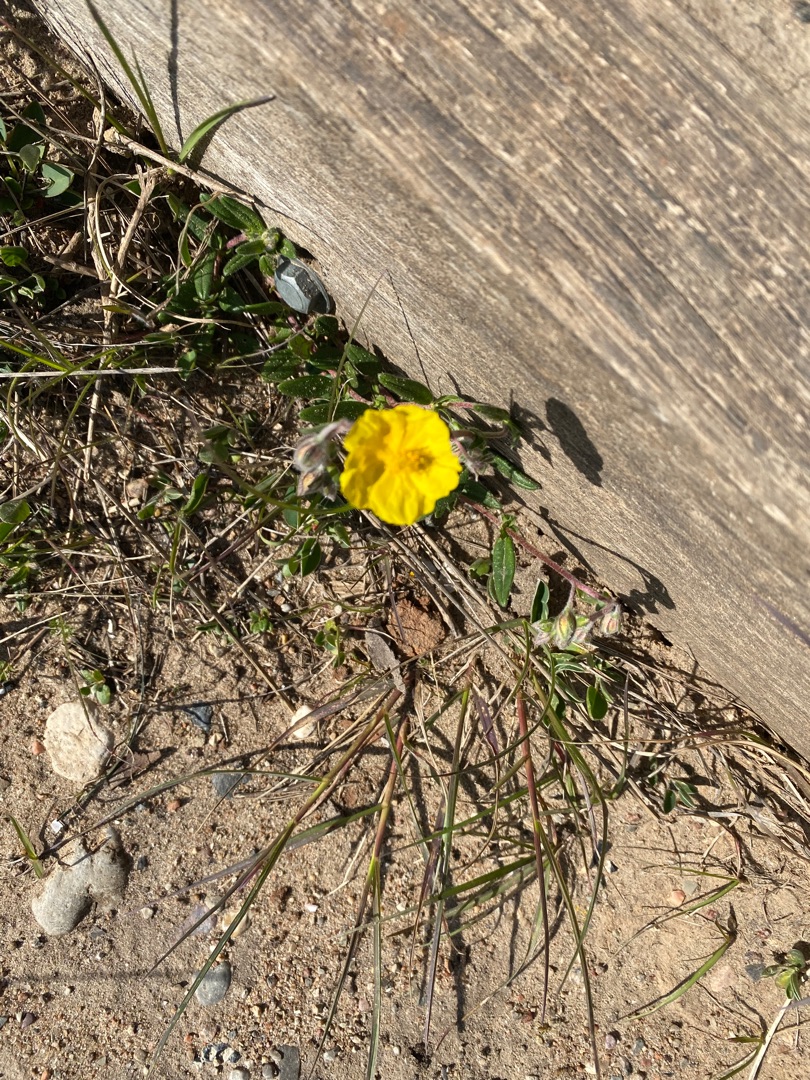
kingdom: Plantae
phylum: Tracheophyta
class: Magnoliopsida
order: Malvales
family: Cistaceae
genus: Helianthemum
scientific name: Helianthemum nummularium
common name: Soløje
